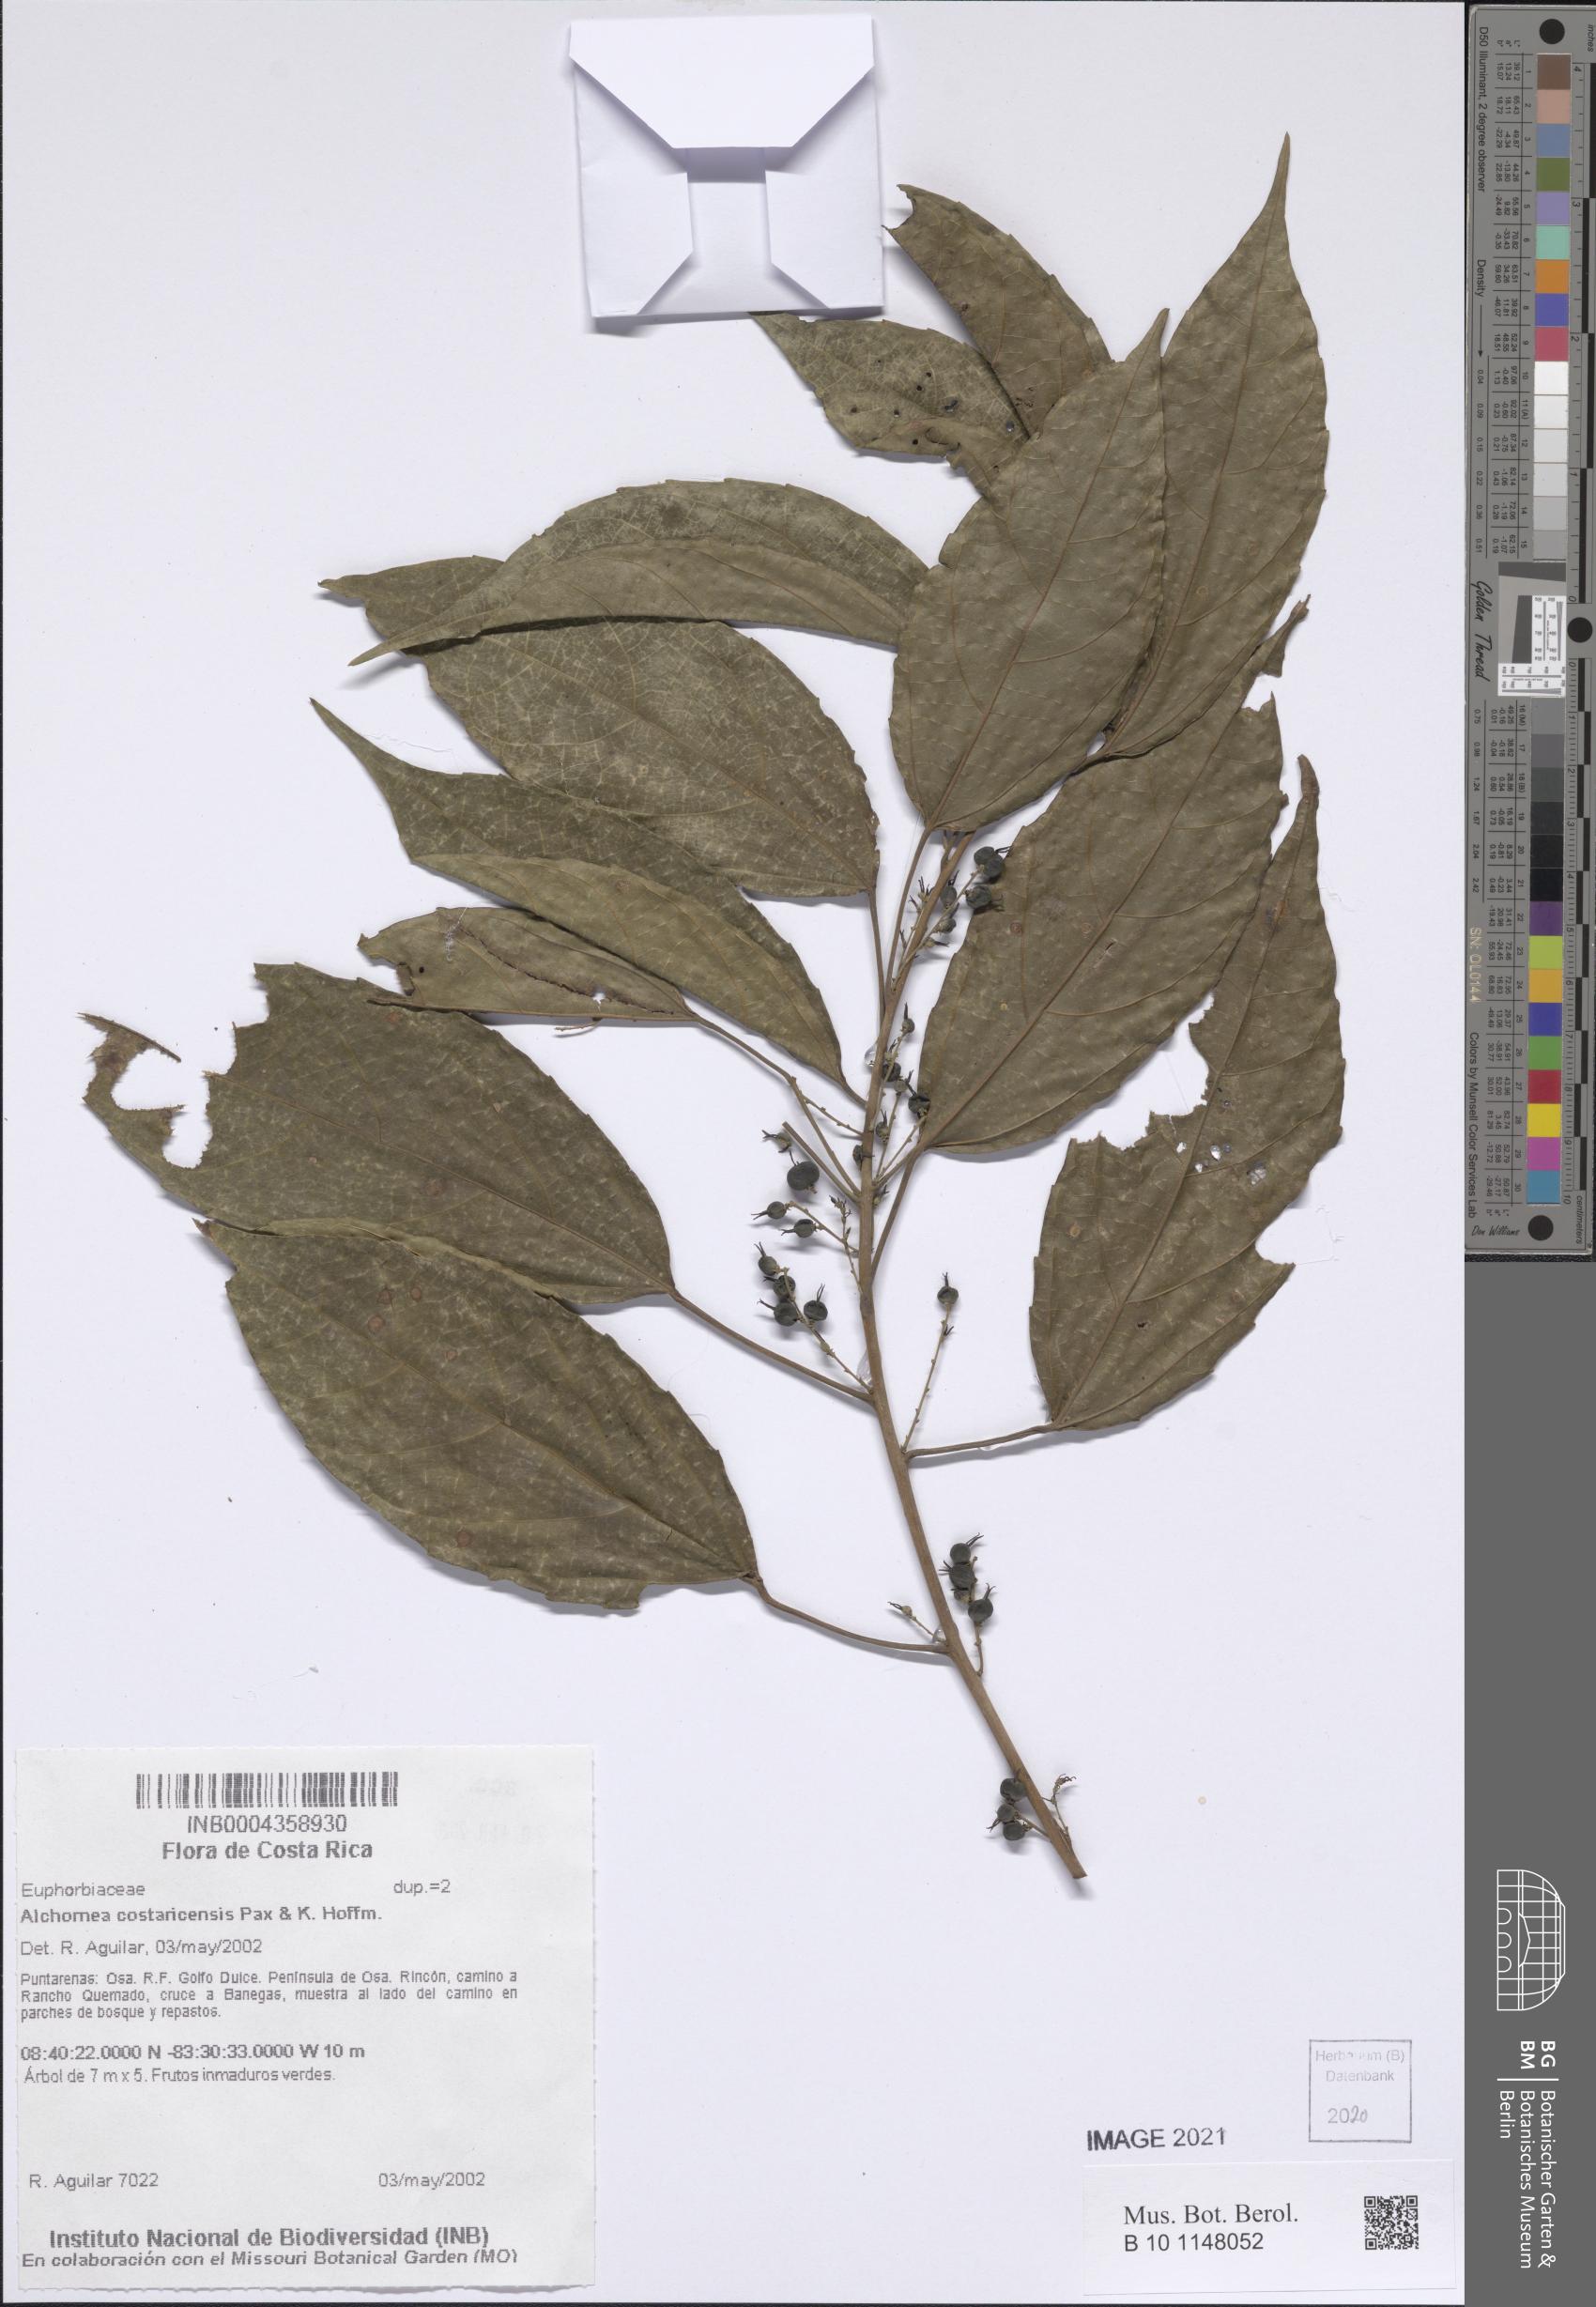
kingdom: Plantae
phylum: Tracheophyta
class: Magnoliopsida
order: Malpighiales
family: Euphorbiaceae
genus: Alchornea
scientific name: Alchornea costaricensis
